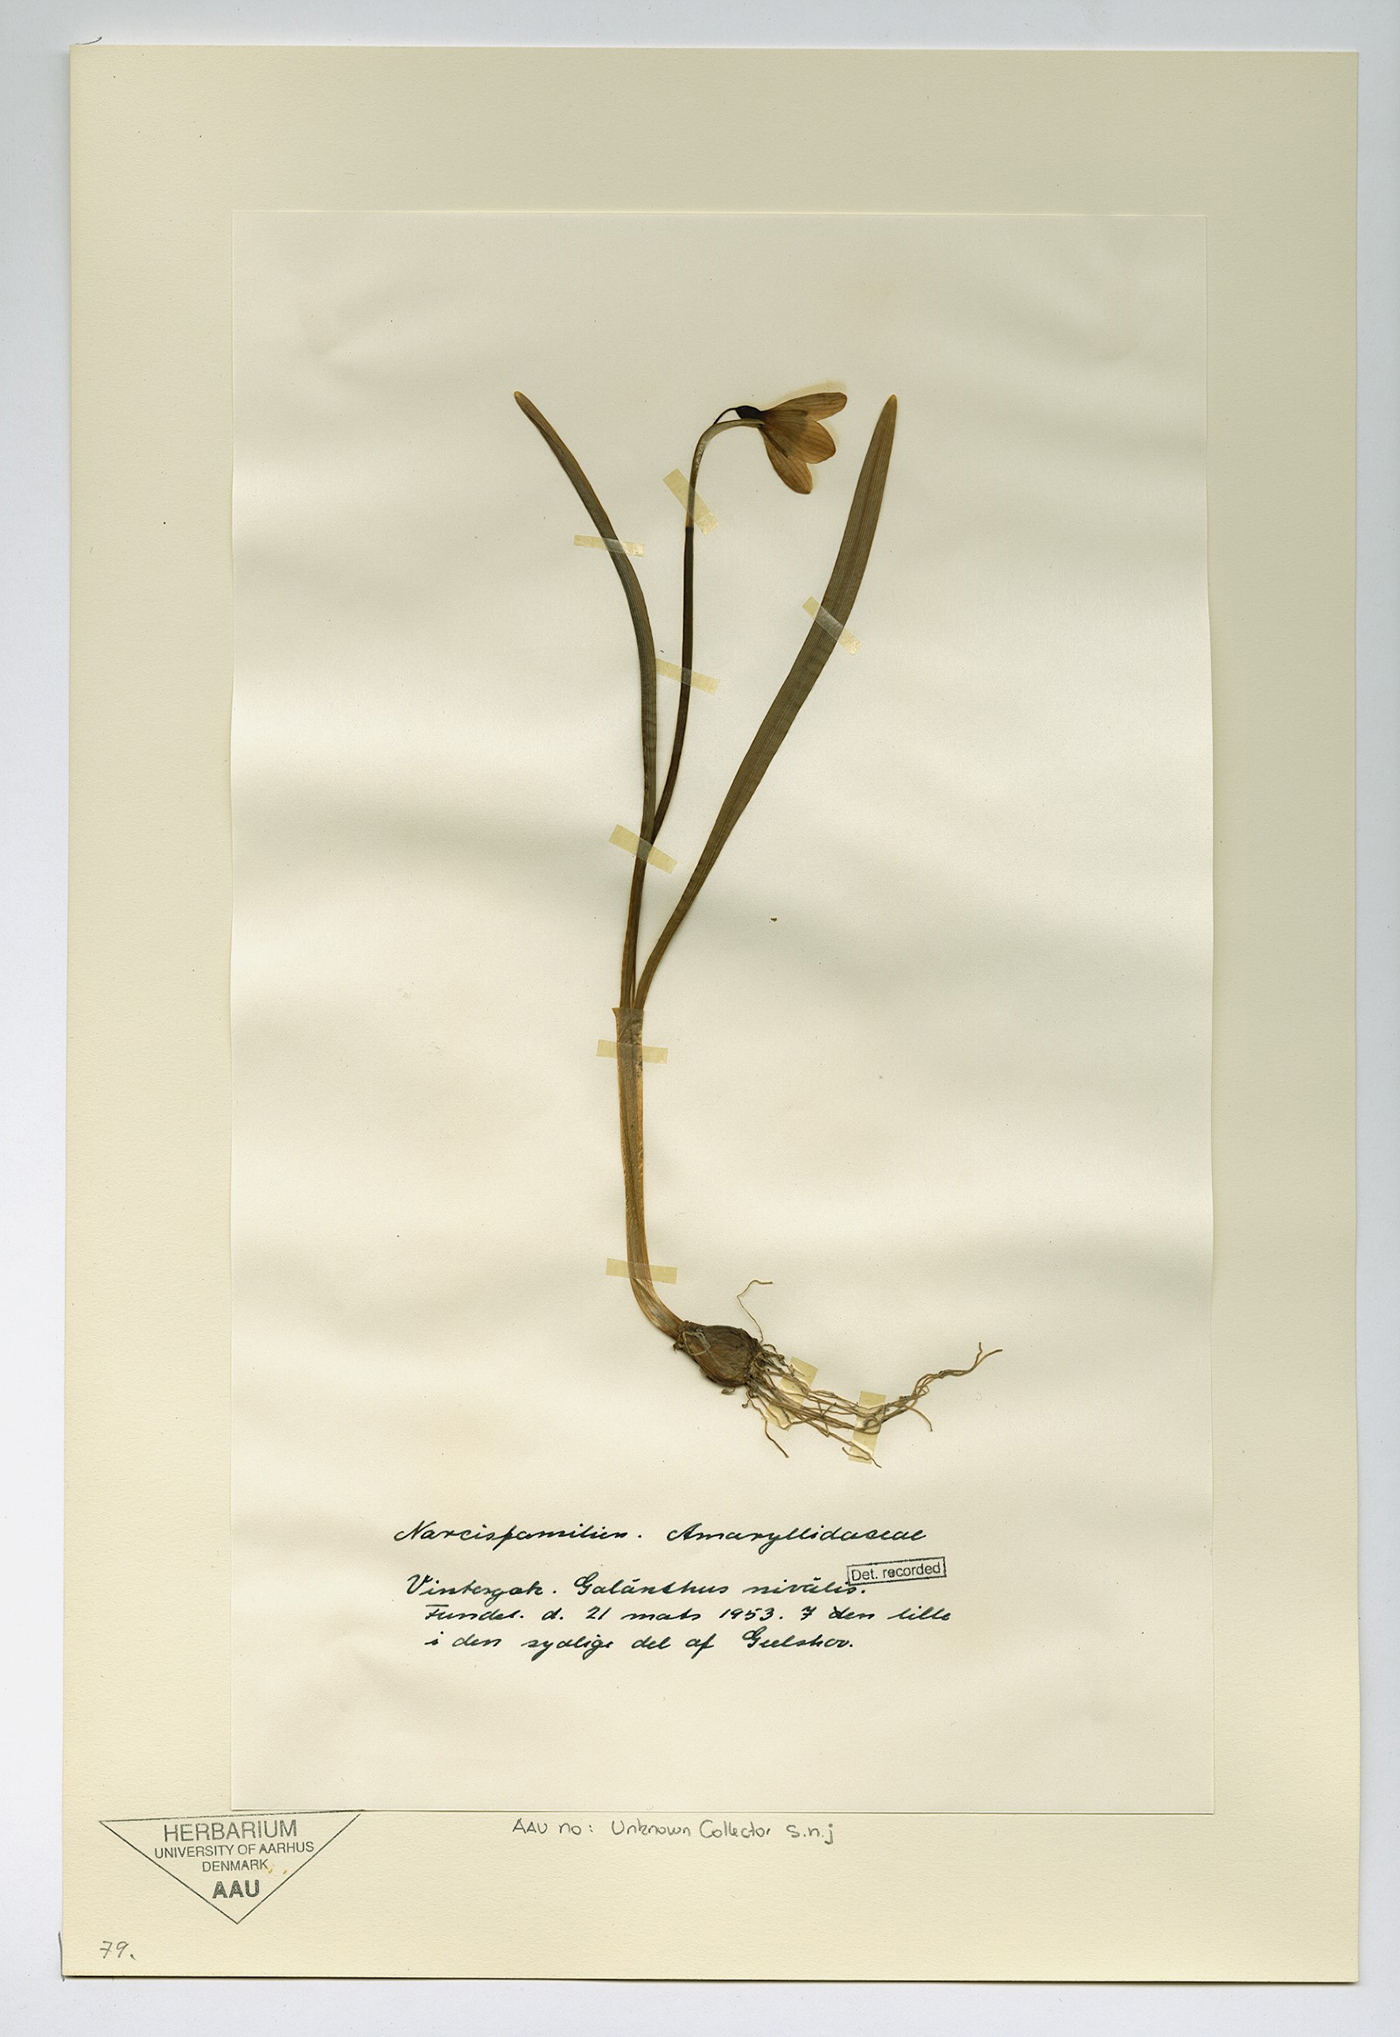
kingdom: Plantae
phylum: Tracheophyta
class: Liliopsida
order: Asparagales
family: Amaryllidaceae
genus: Galanthus
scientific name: Galanthus nivalis
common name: Snowdrop
